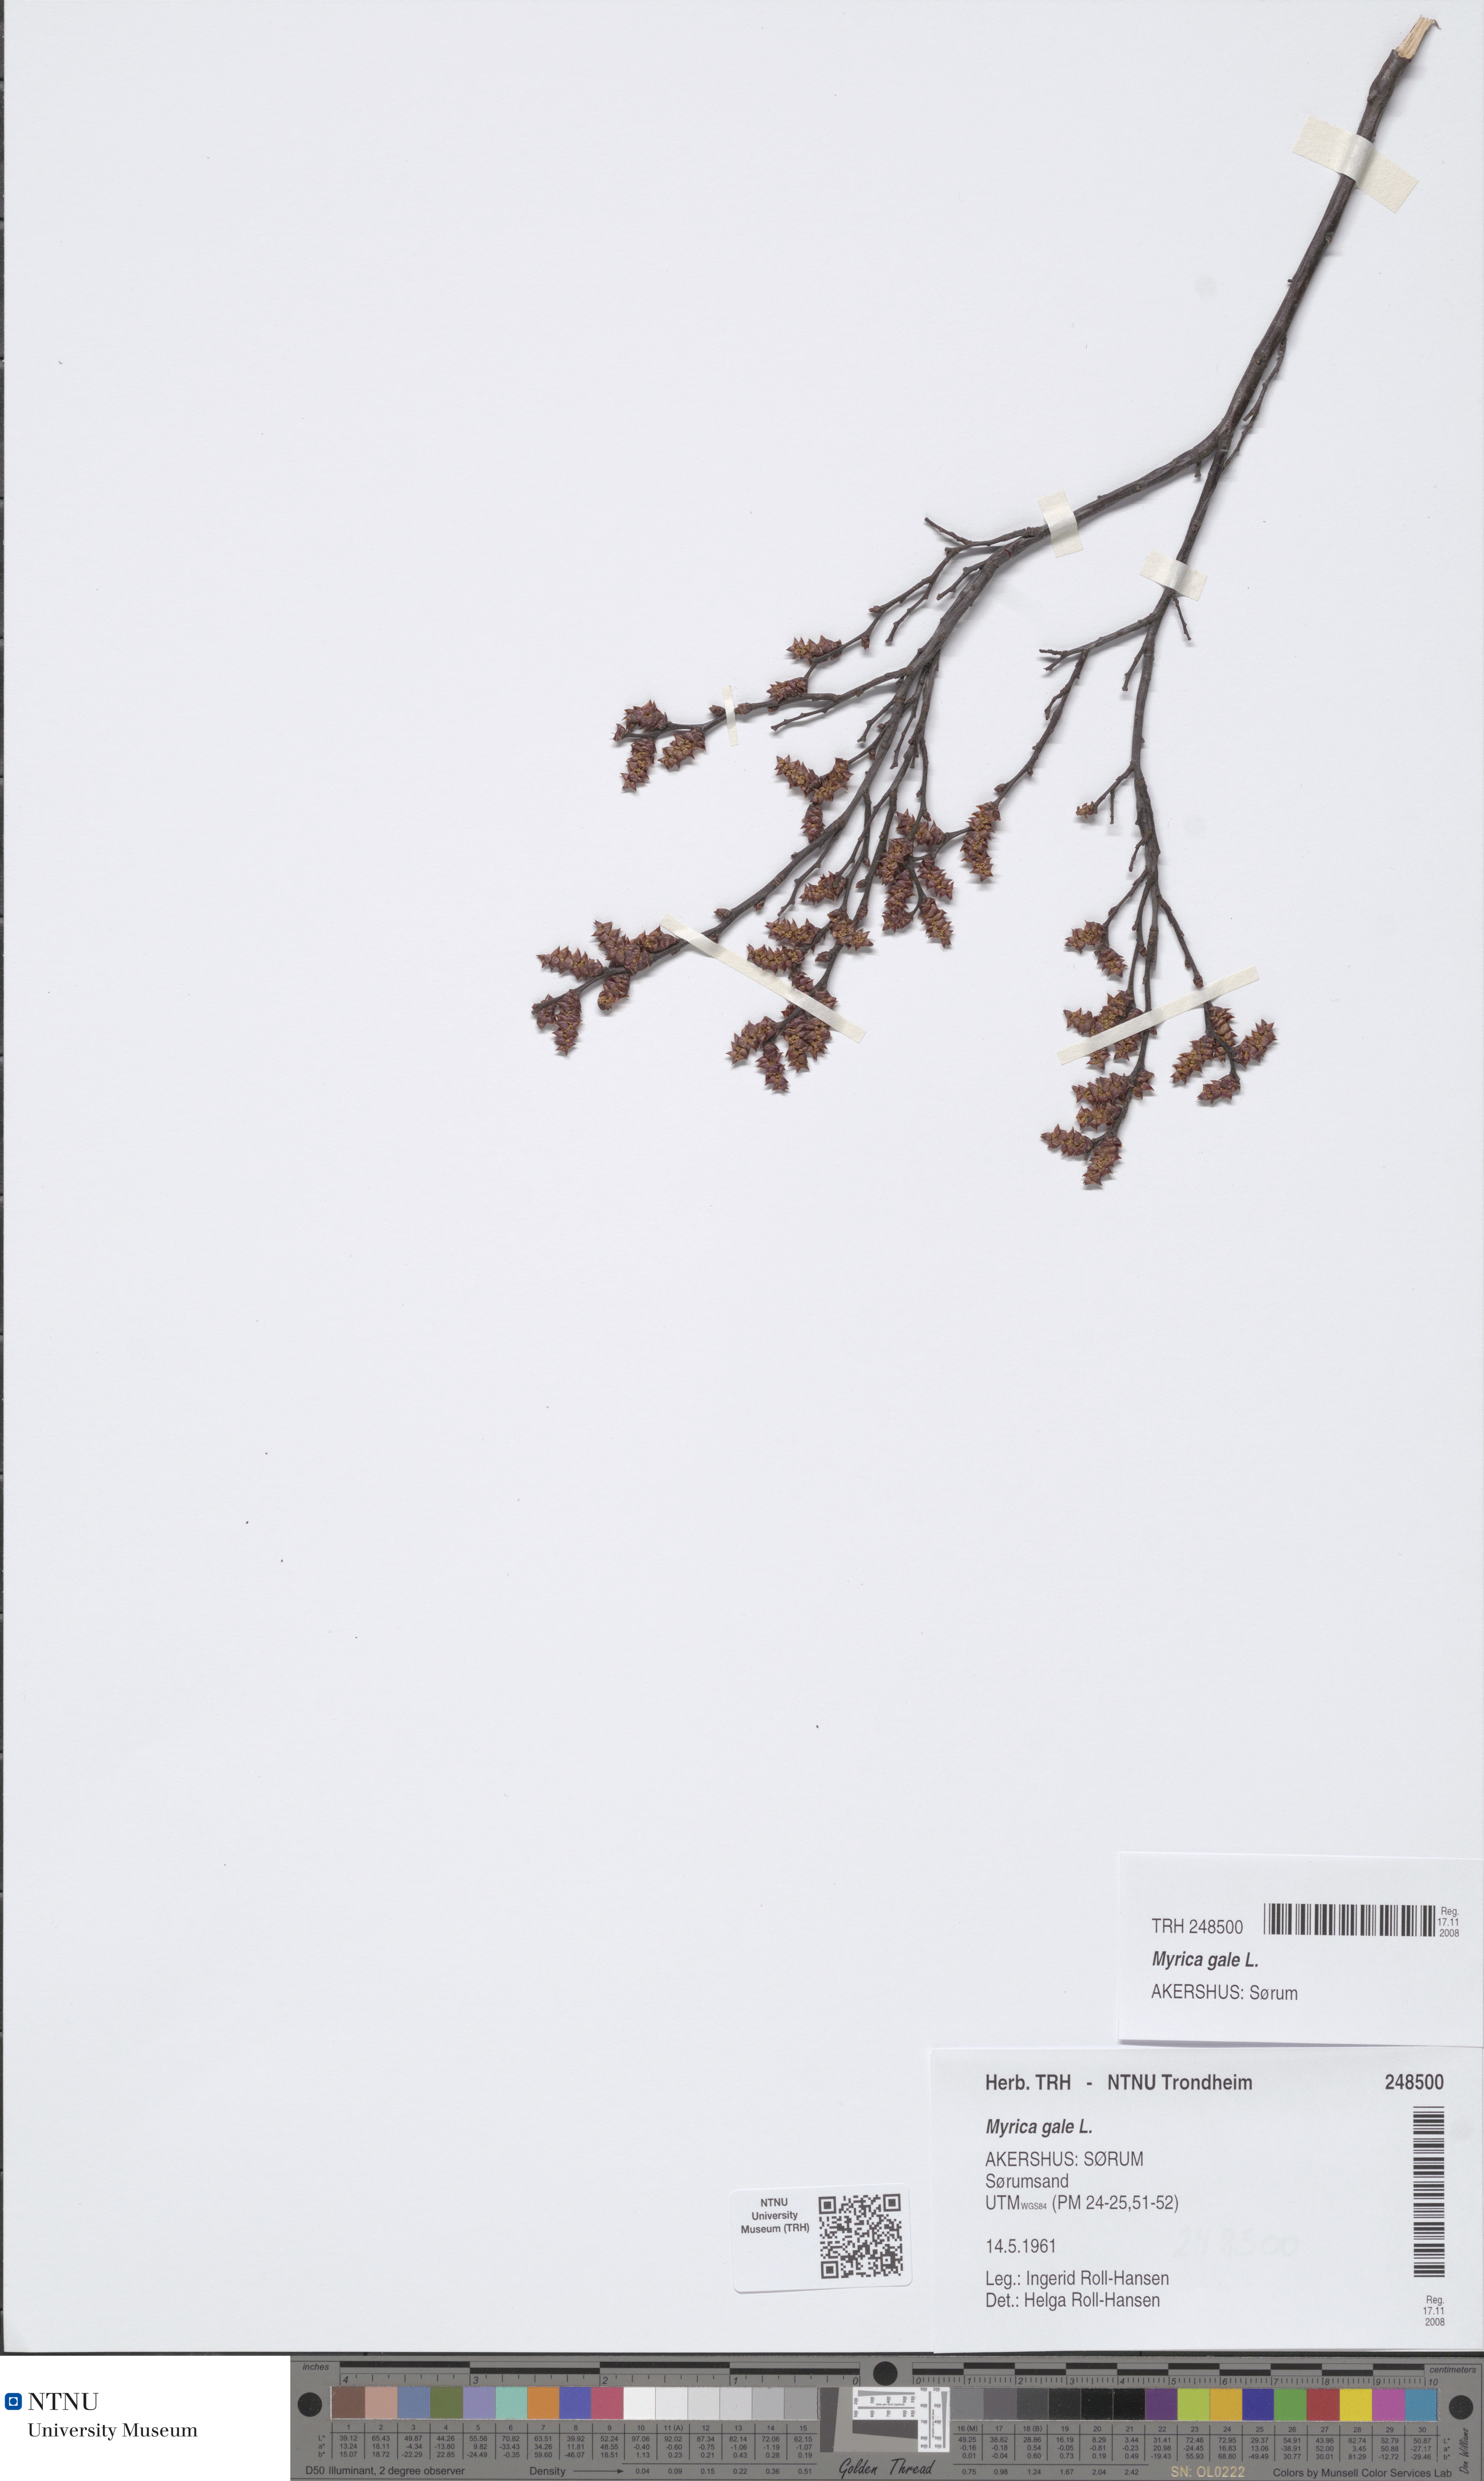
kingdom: Plantae
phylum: Tracheophyta
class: Magnoliopsida
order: Fagales
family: Myricaceae
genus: Myrica
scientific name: Myrica gale
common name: Sweet gale
